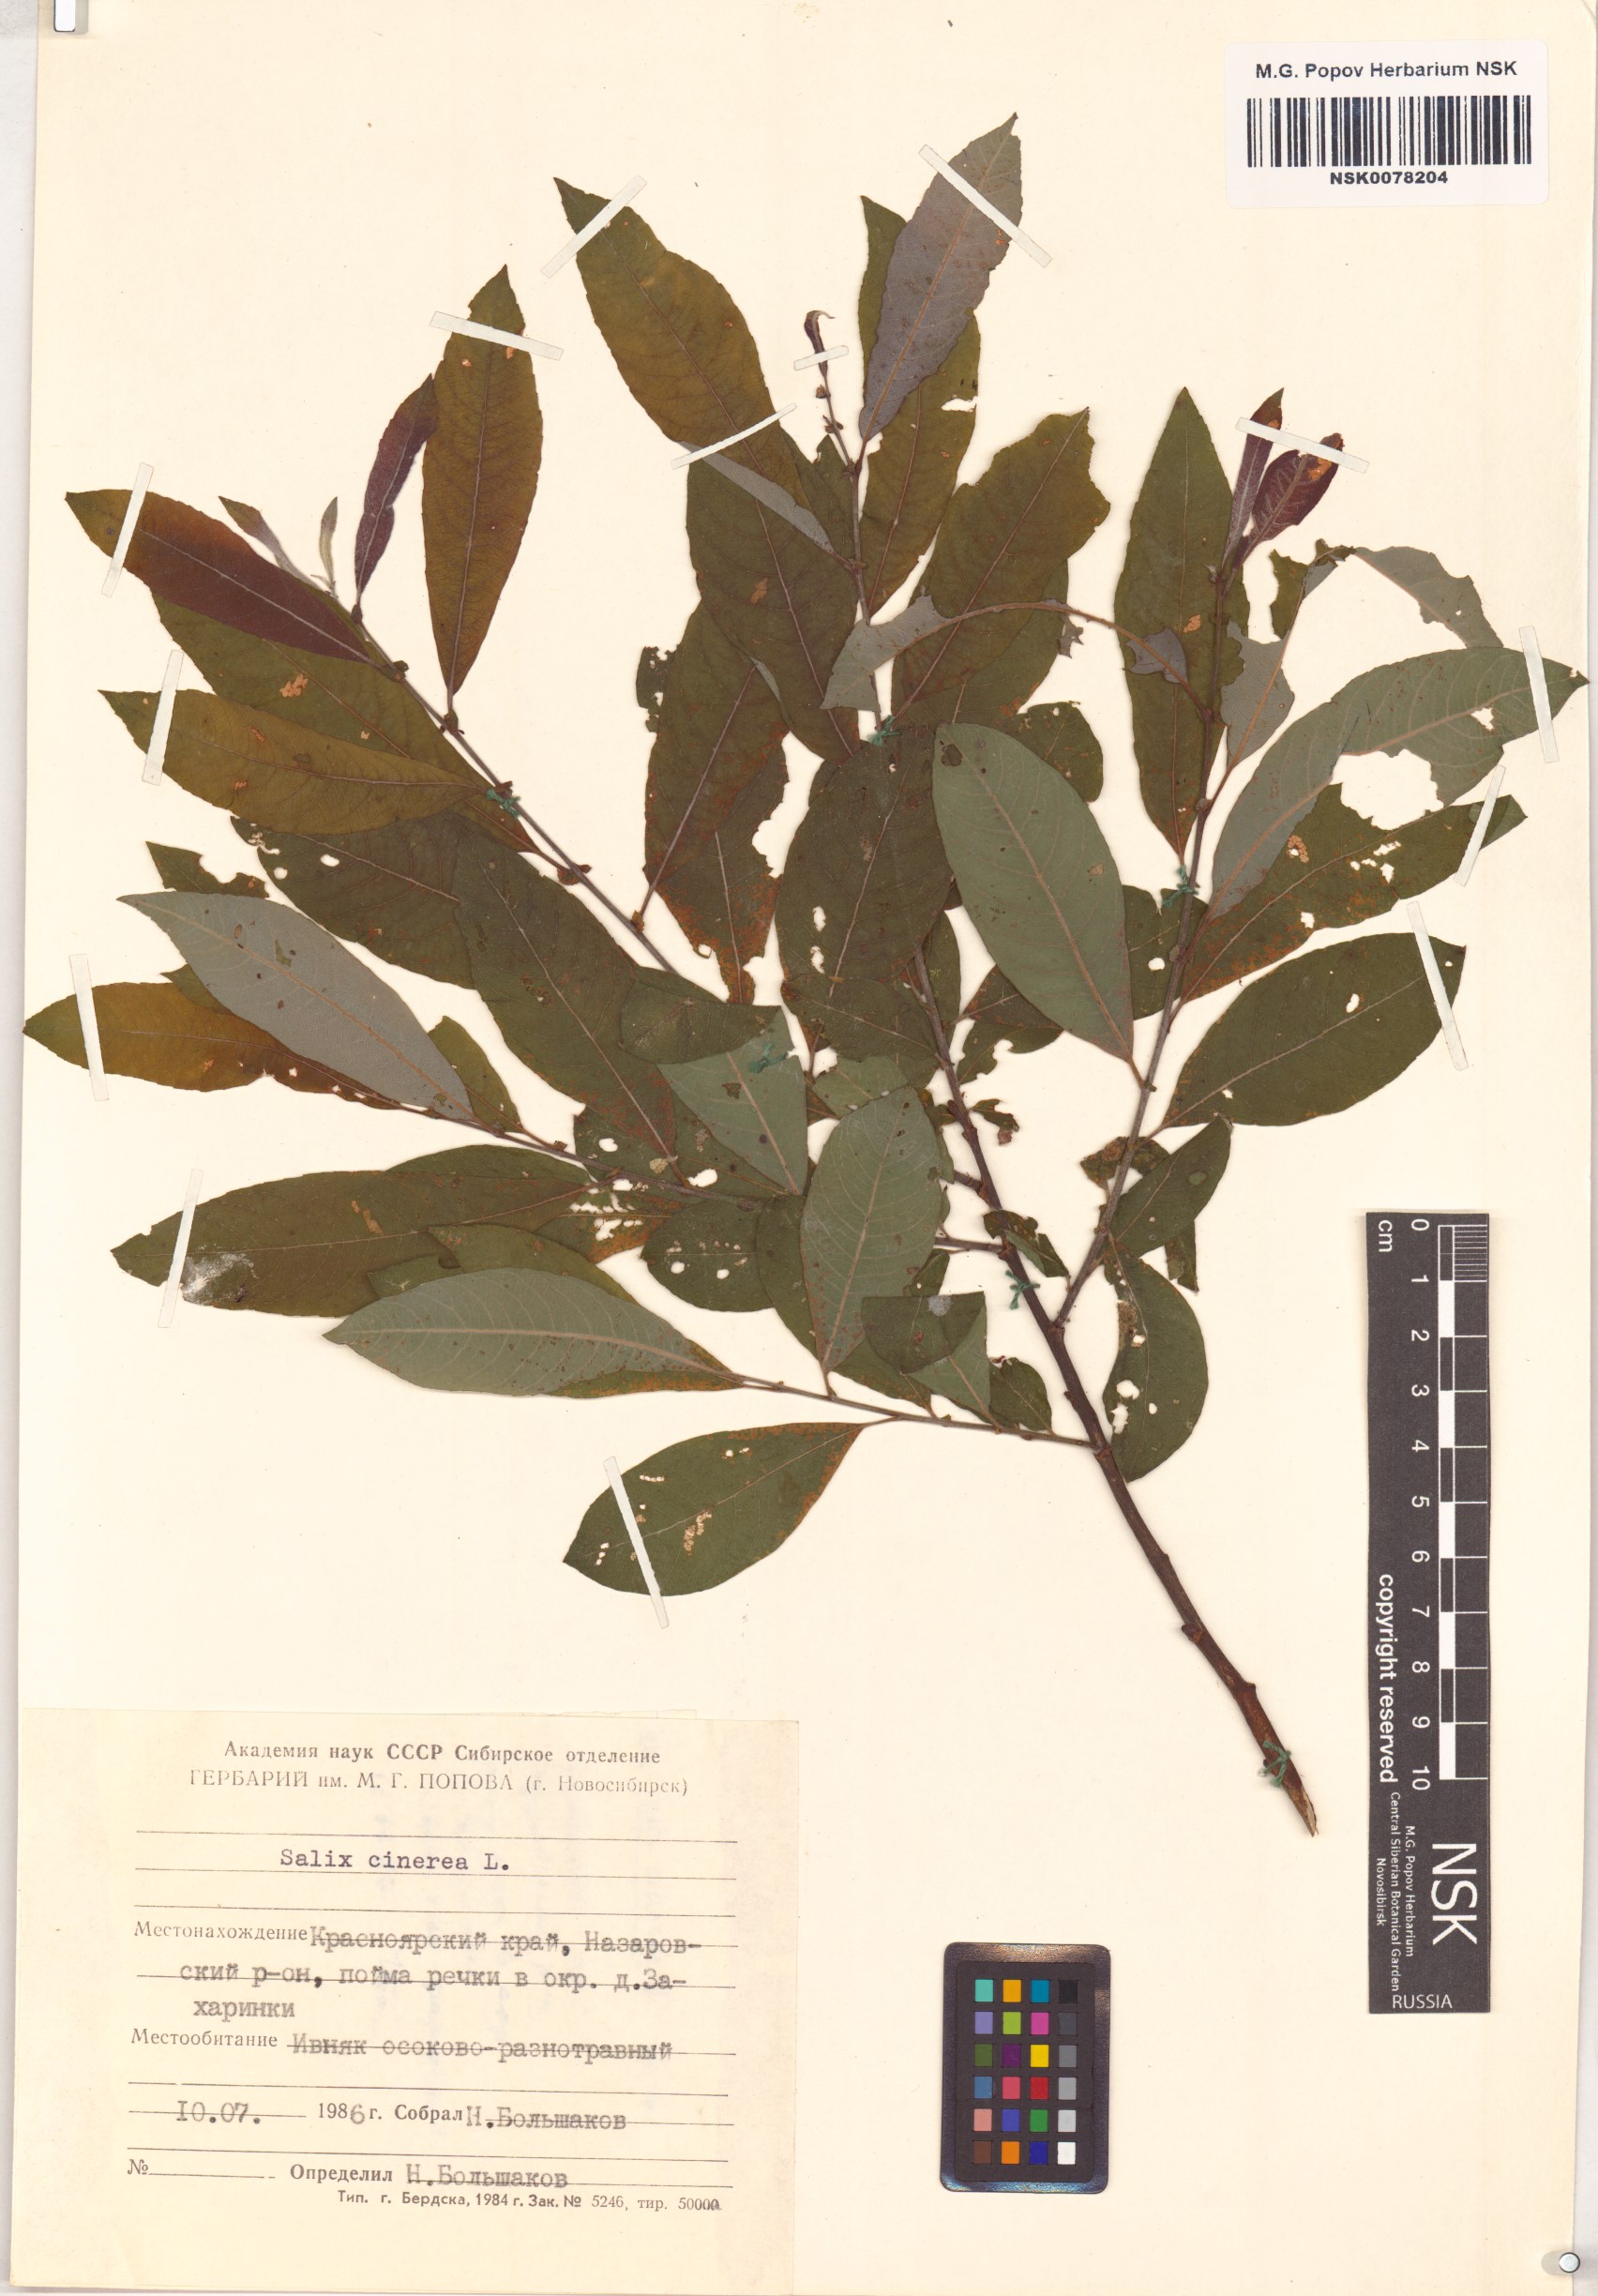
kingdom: Plantae
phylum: Tracheophyta
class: Magnoliopsida
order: Malpighiales
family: Salicaceae
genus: Salix
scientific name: Salix cinerea
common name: Common sallow
